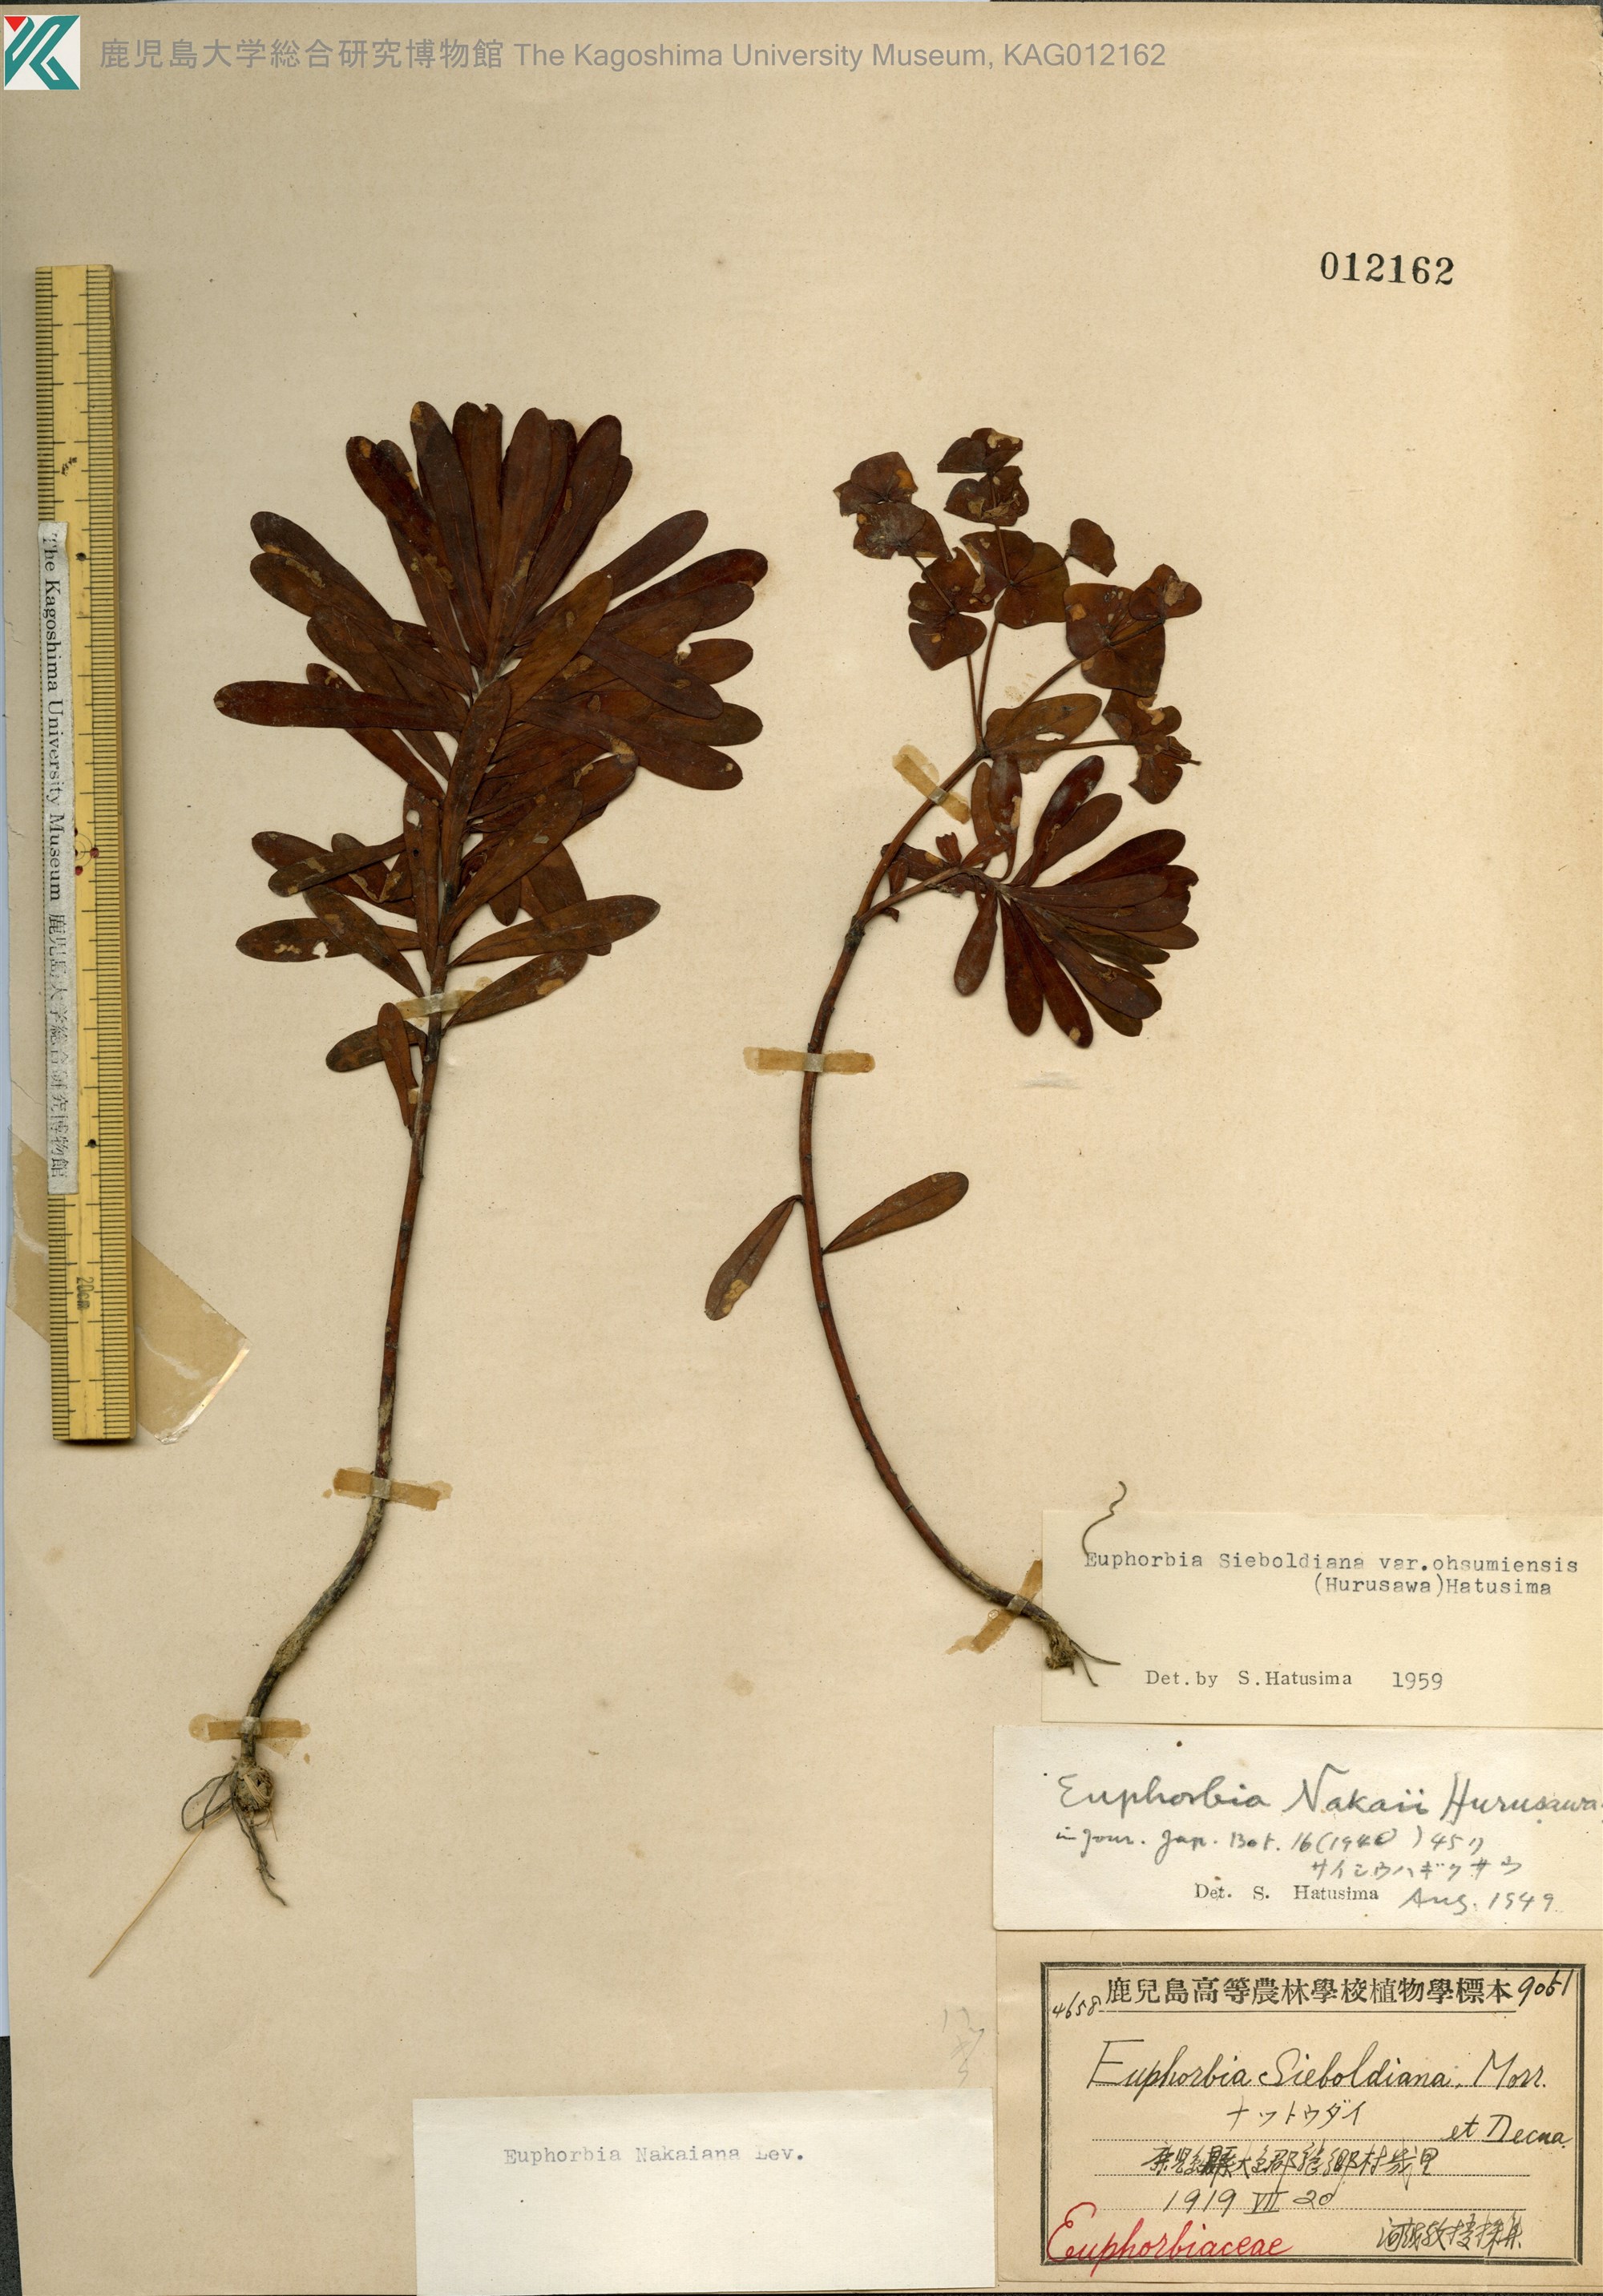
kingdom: Plantae
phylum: Tracheophyta
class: Magnoliopsida
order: Malpighiales
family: Euphorbiaceae
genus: Euphorbia
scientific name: Euphorbia sieboldiana
